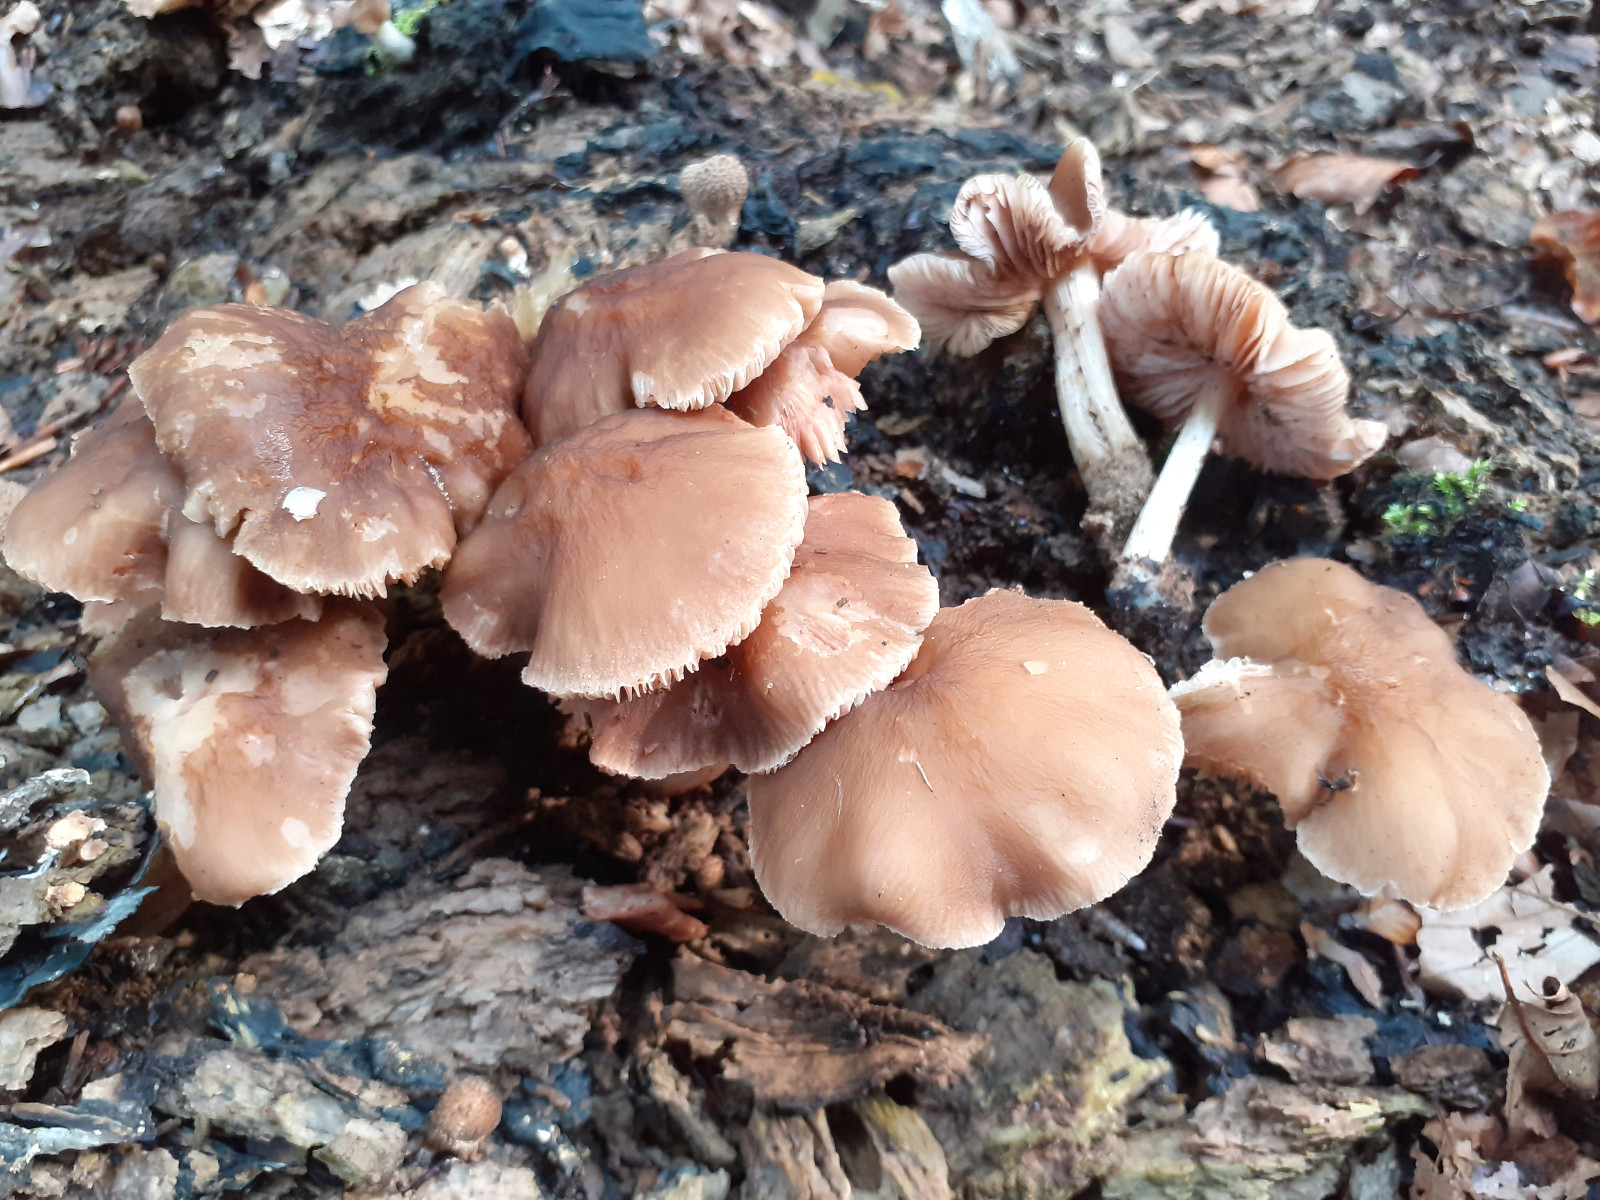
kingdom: Fungi
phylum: Basidiomycota
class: Agaricomycetes
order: Agaricales
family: Pluteaceae
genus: Pluteus
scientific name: Pluteus phlebophorus
